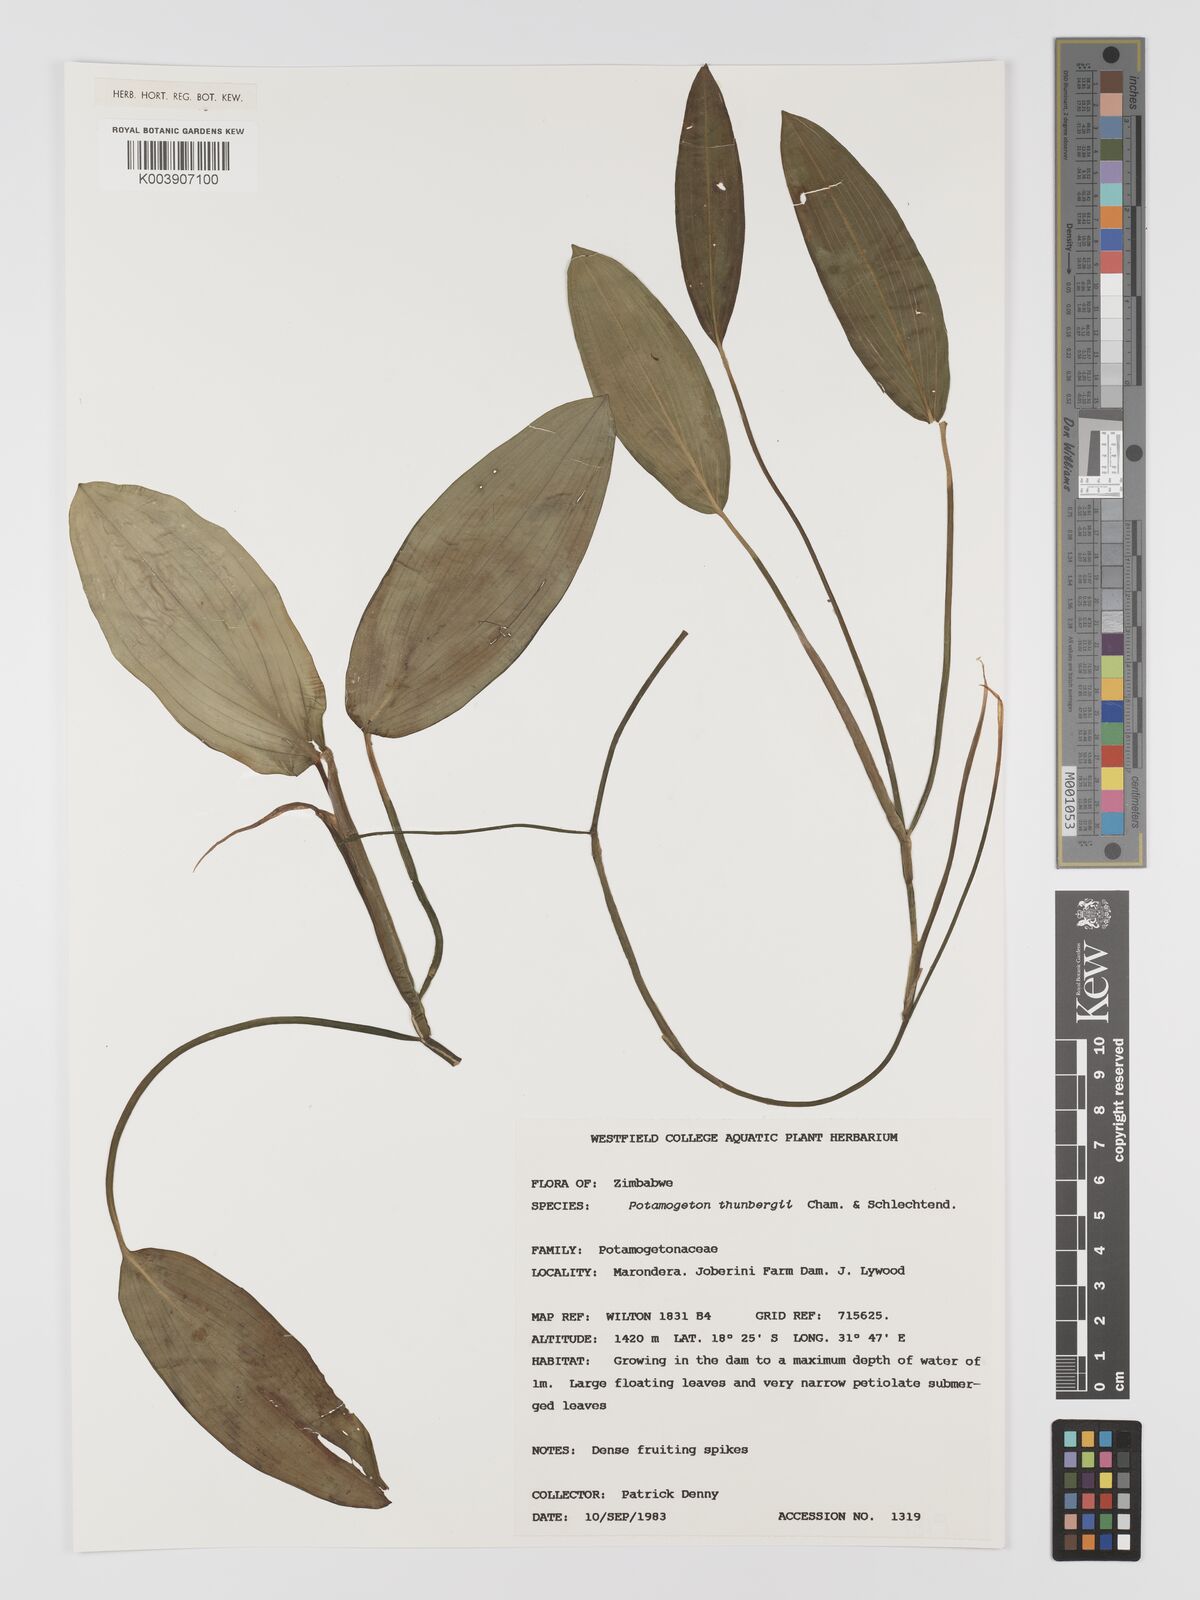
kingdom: Plantae
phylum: Tracheophyta
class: Liliopsida
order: Alismatales
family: Potamogetonaceae
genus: Potamogeton
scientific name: Potamogeton nodosus
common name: Loddon pondweed
